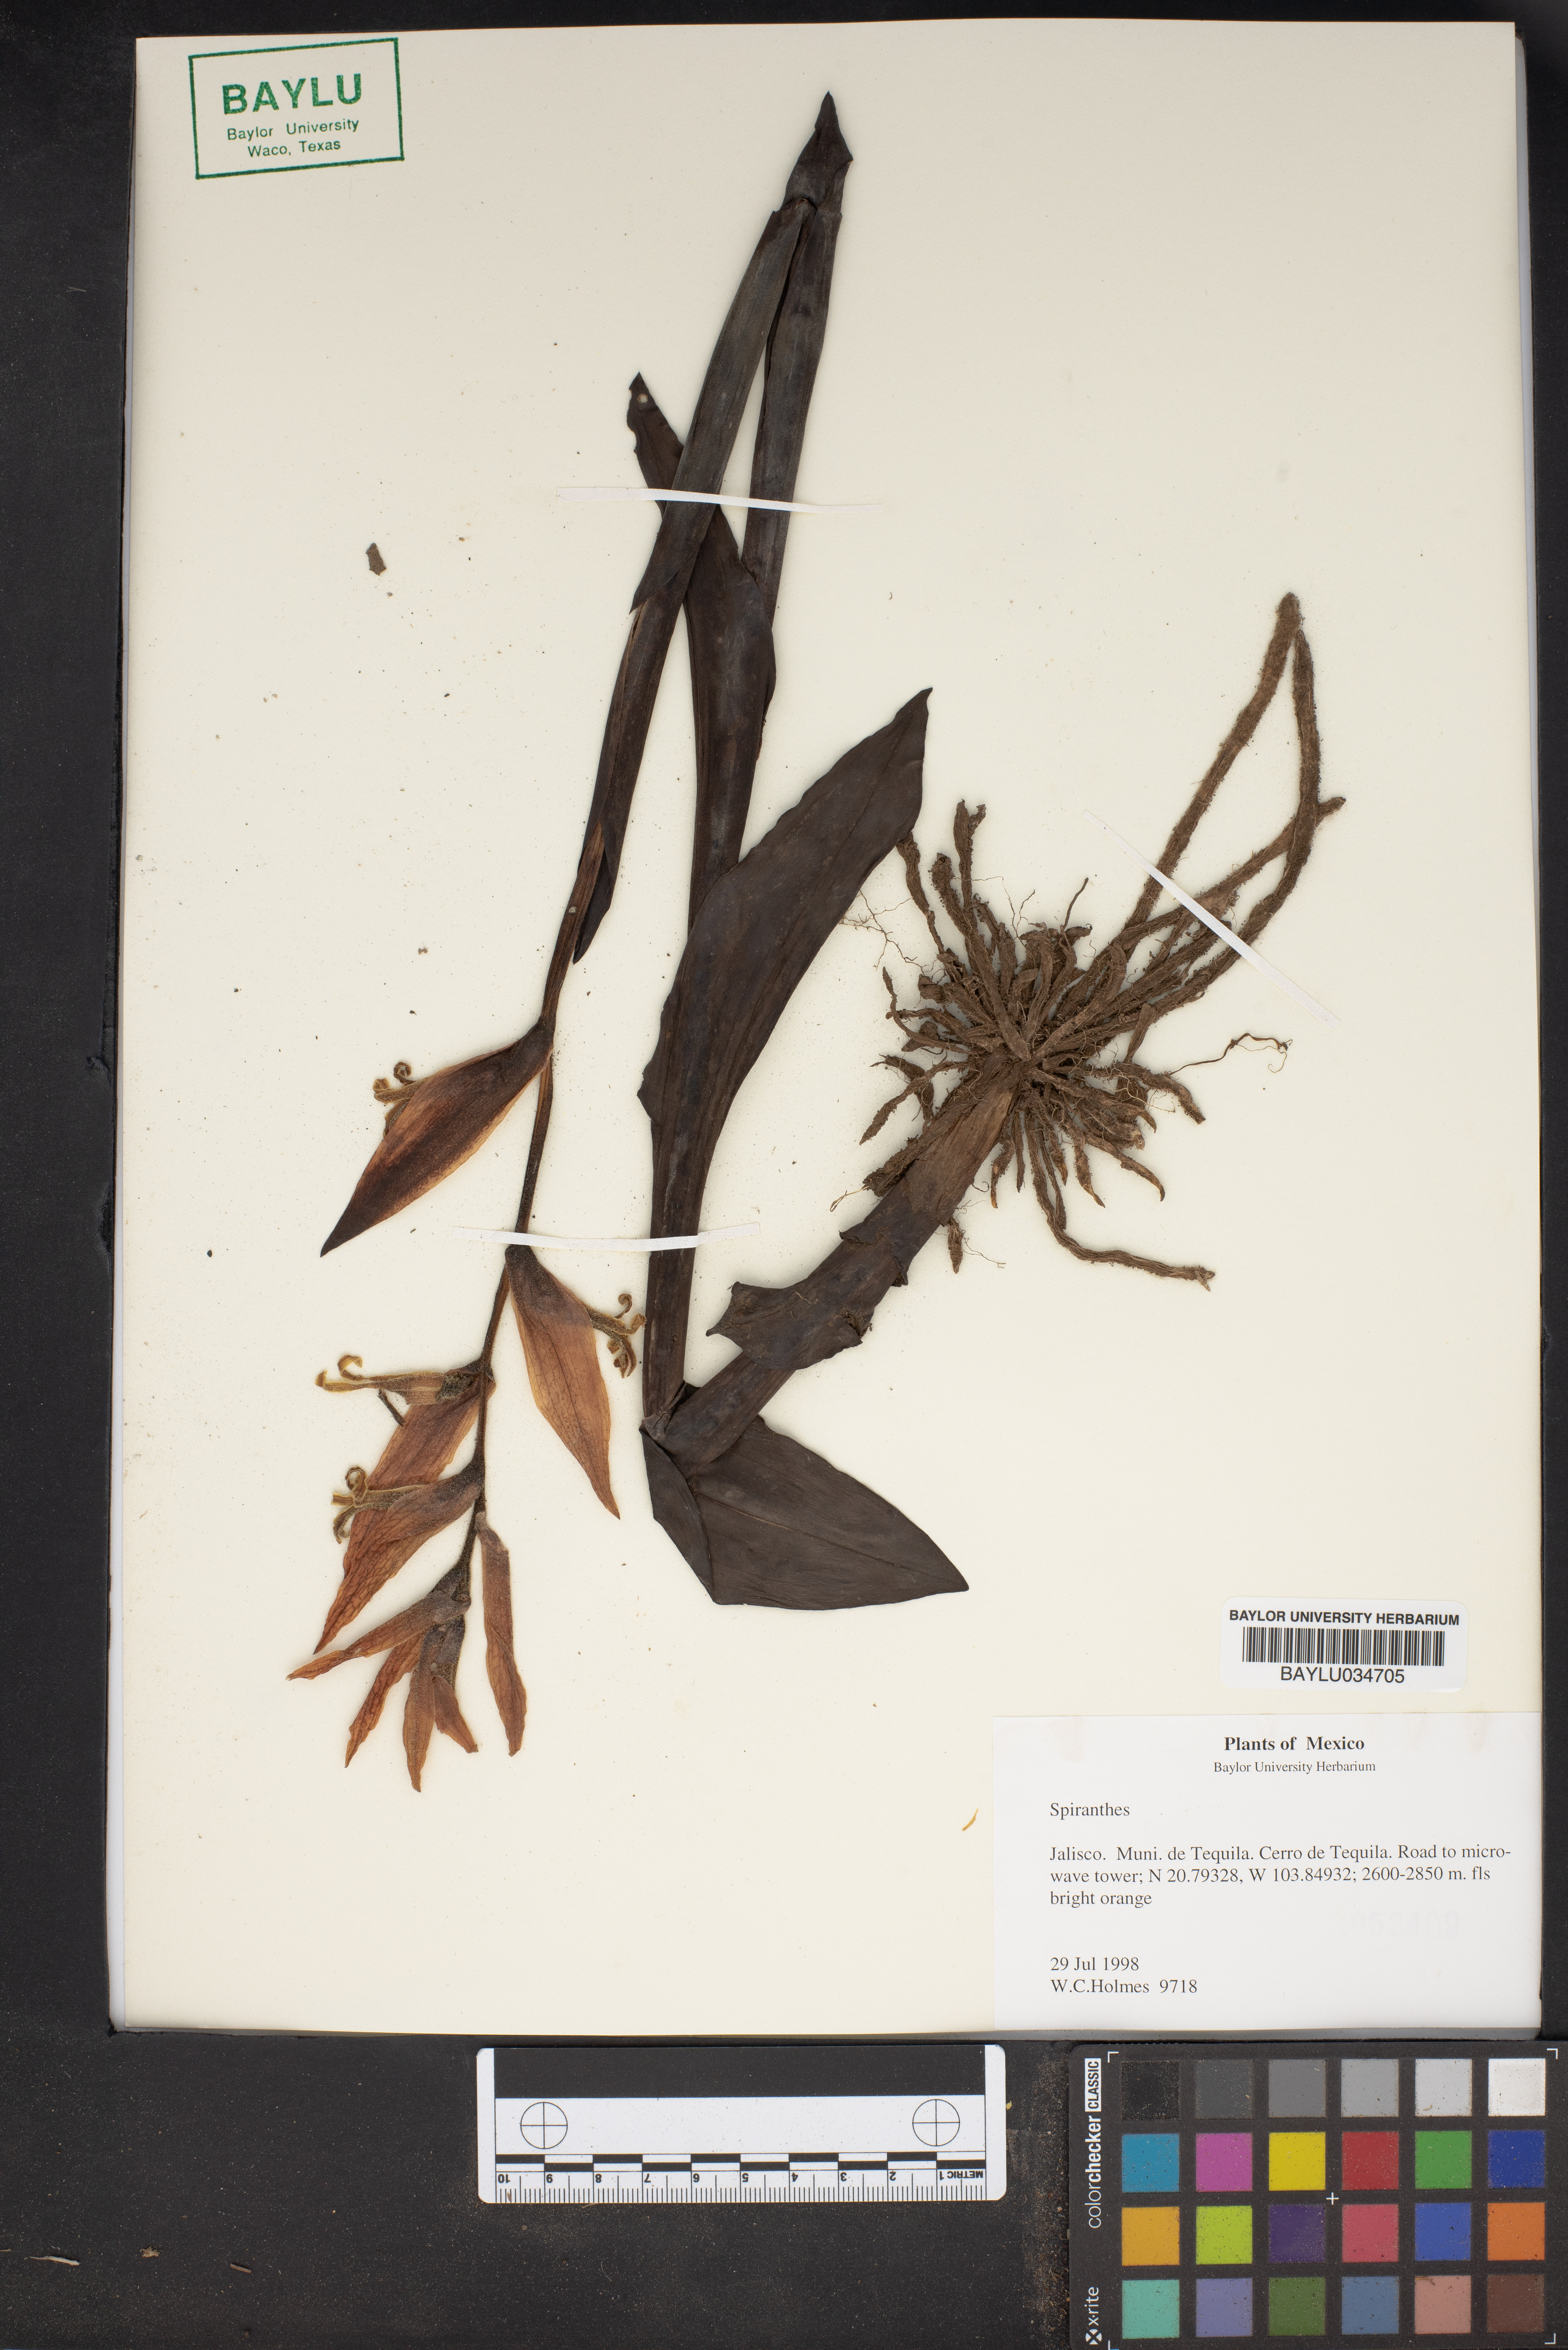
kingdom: Plantae
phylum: Tracheophyta
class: Liliopsida
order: Asparagales
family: Orchidaceae
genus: Spiranthes
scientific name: Spiranthes
